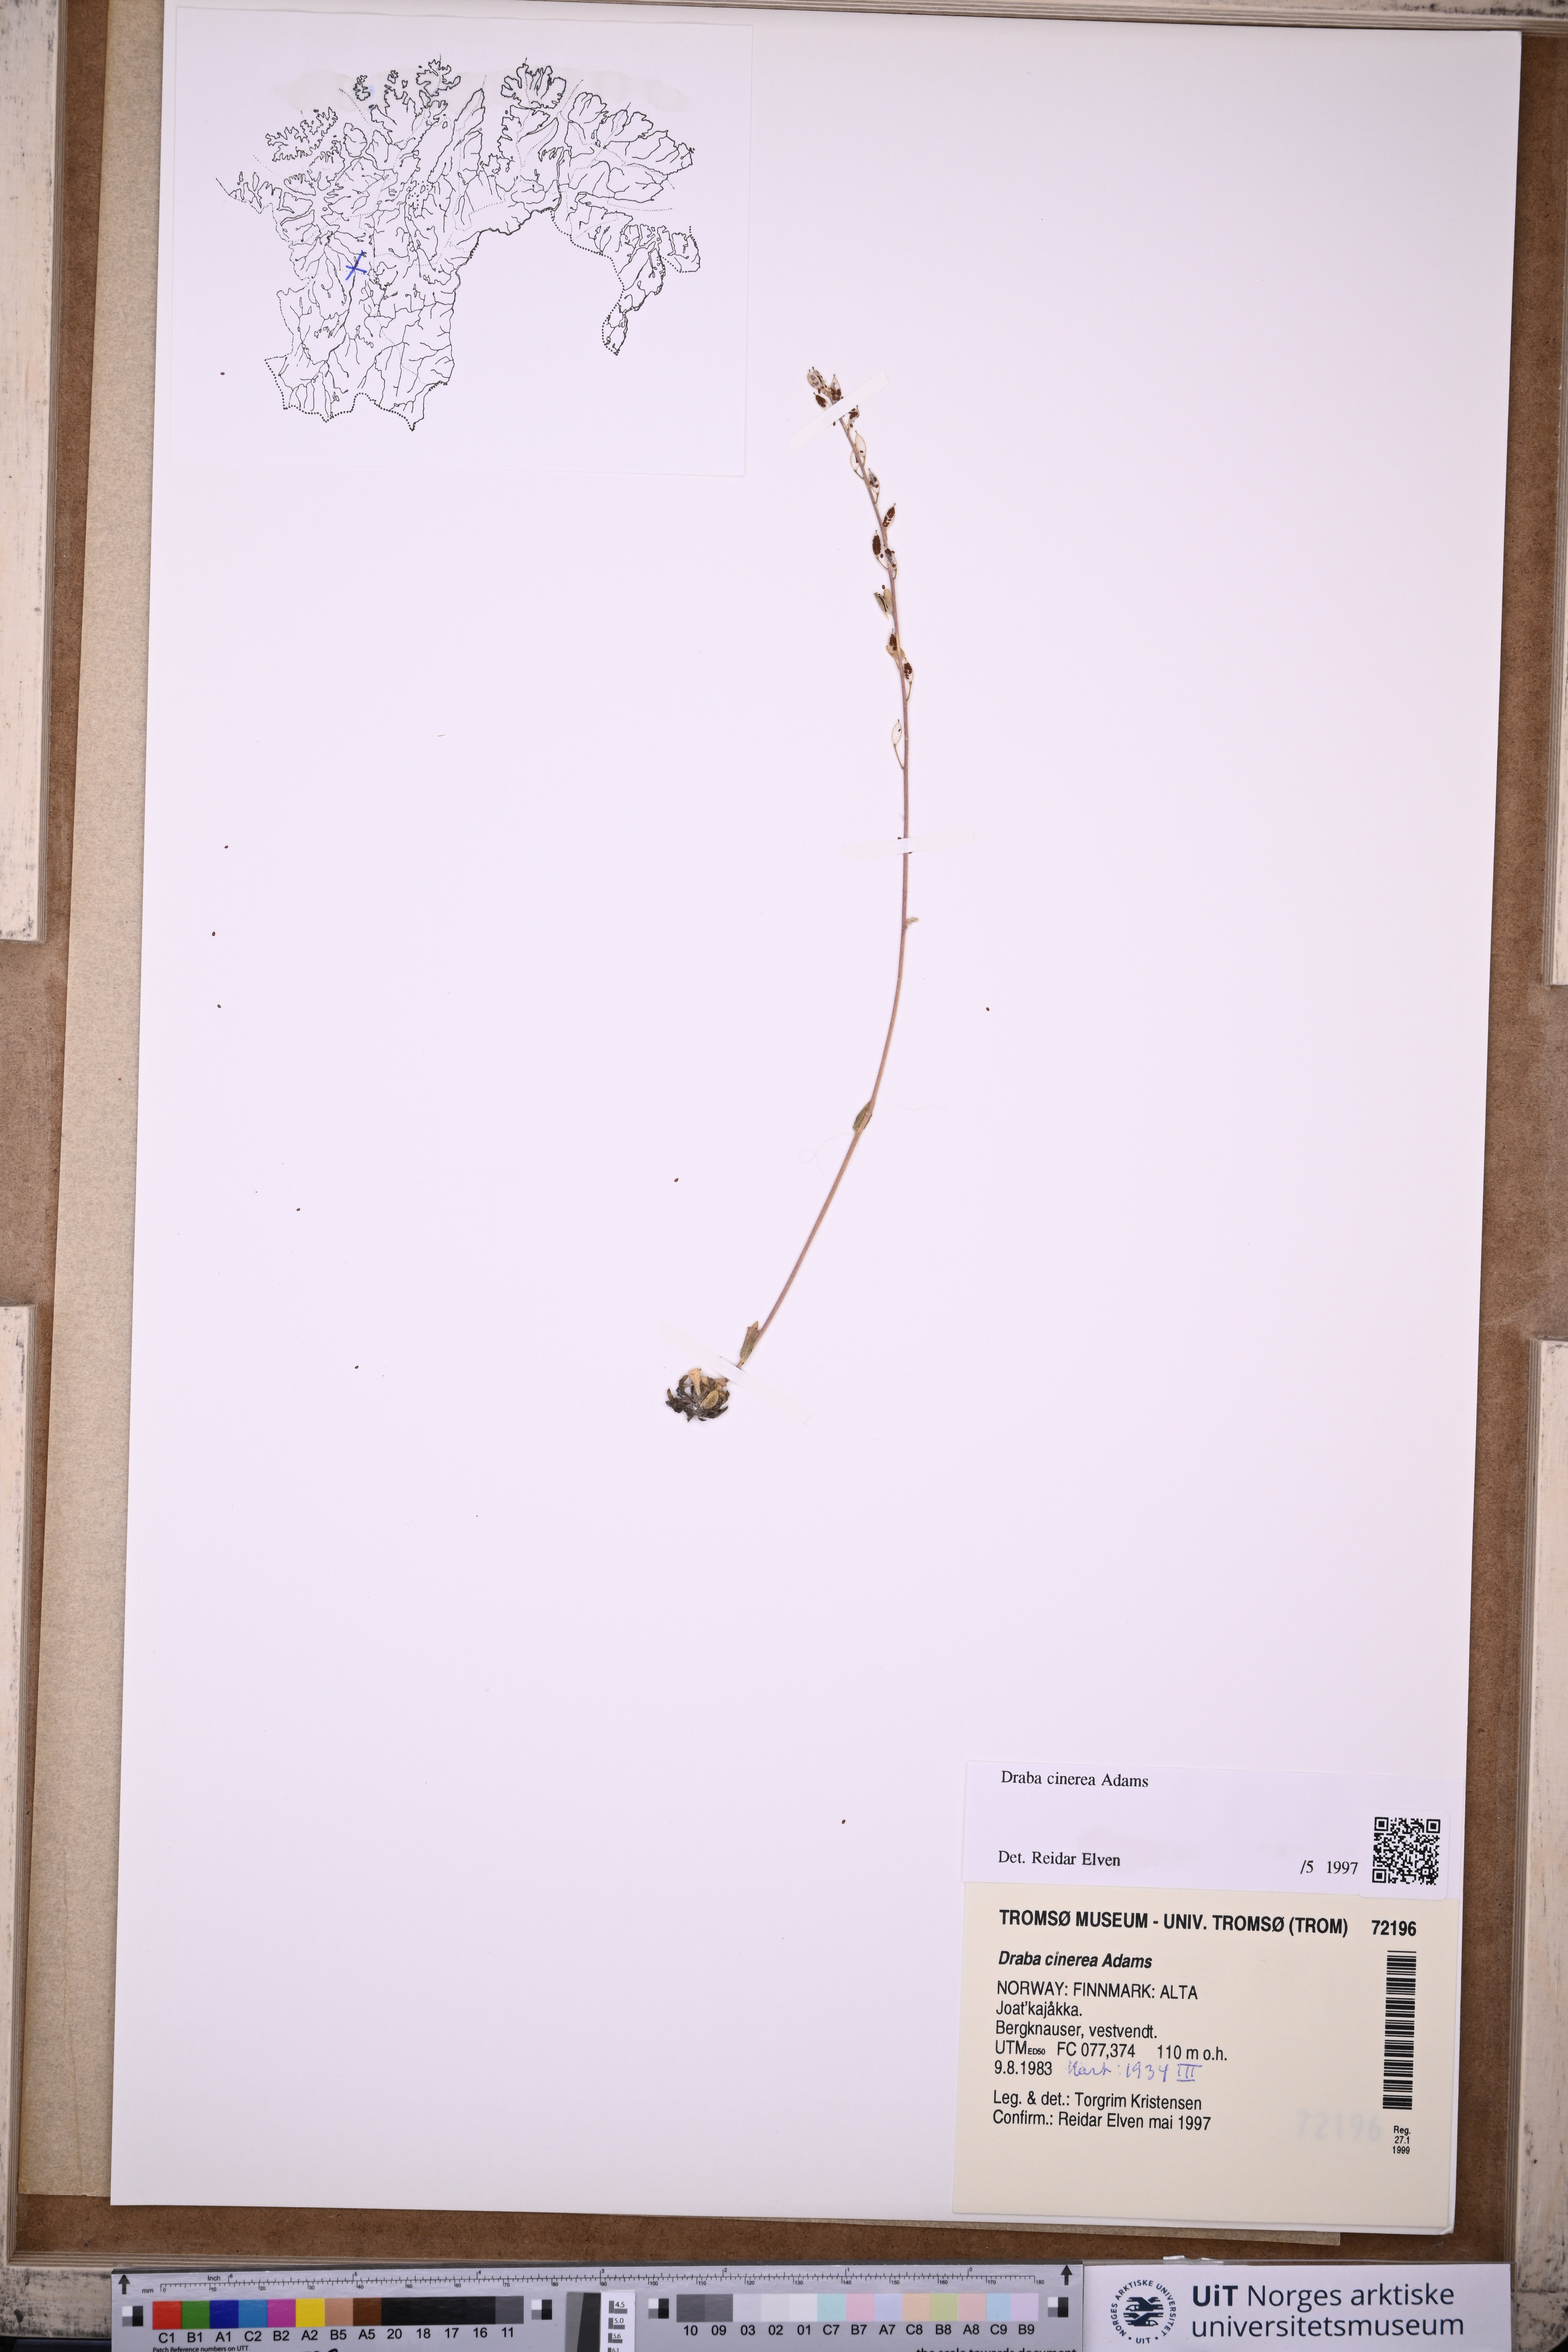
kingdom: Plantae
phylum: Tracheophyta
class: Magnoliopsida
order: Brassicales
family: Brassicaceae
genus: Draba
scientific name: Draba arctica
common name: Arctic draba
